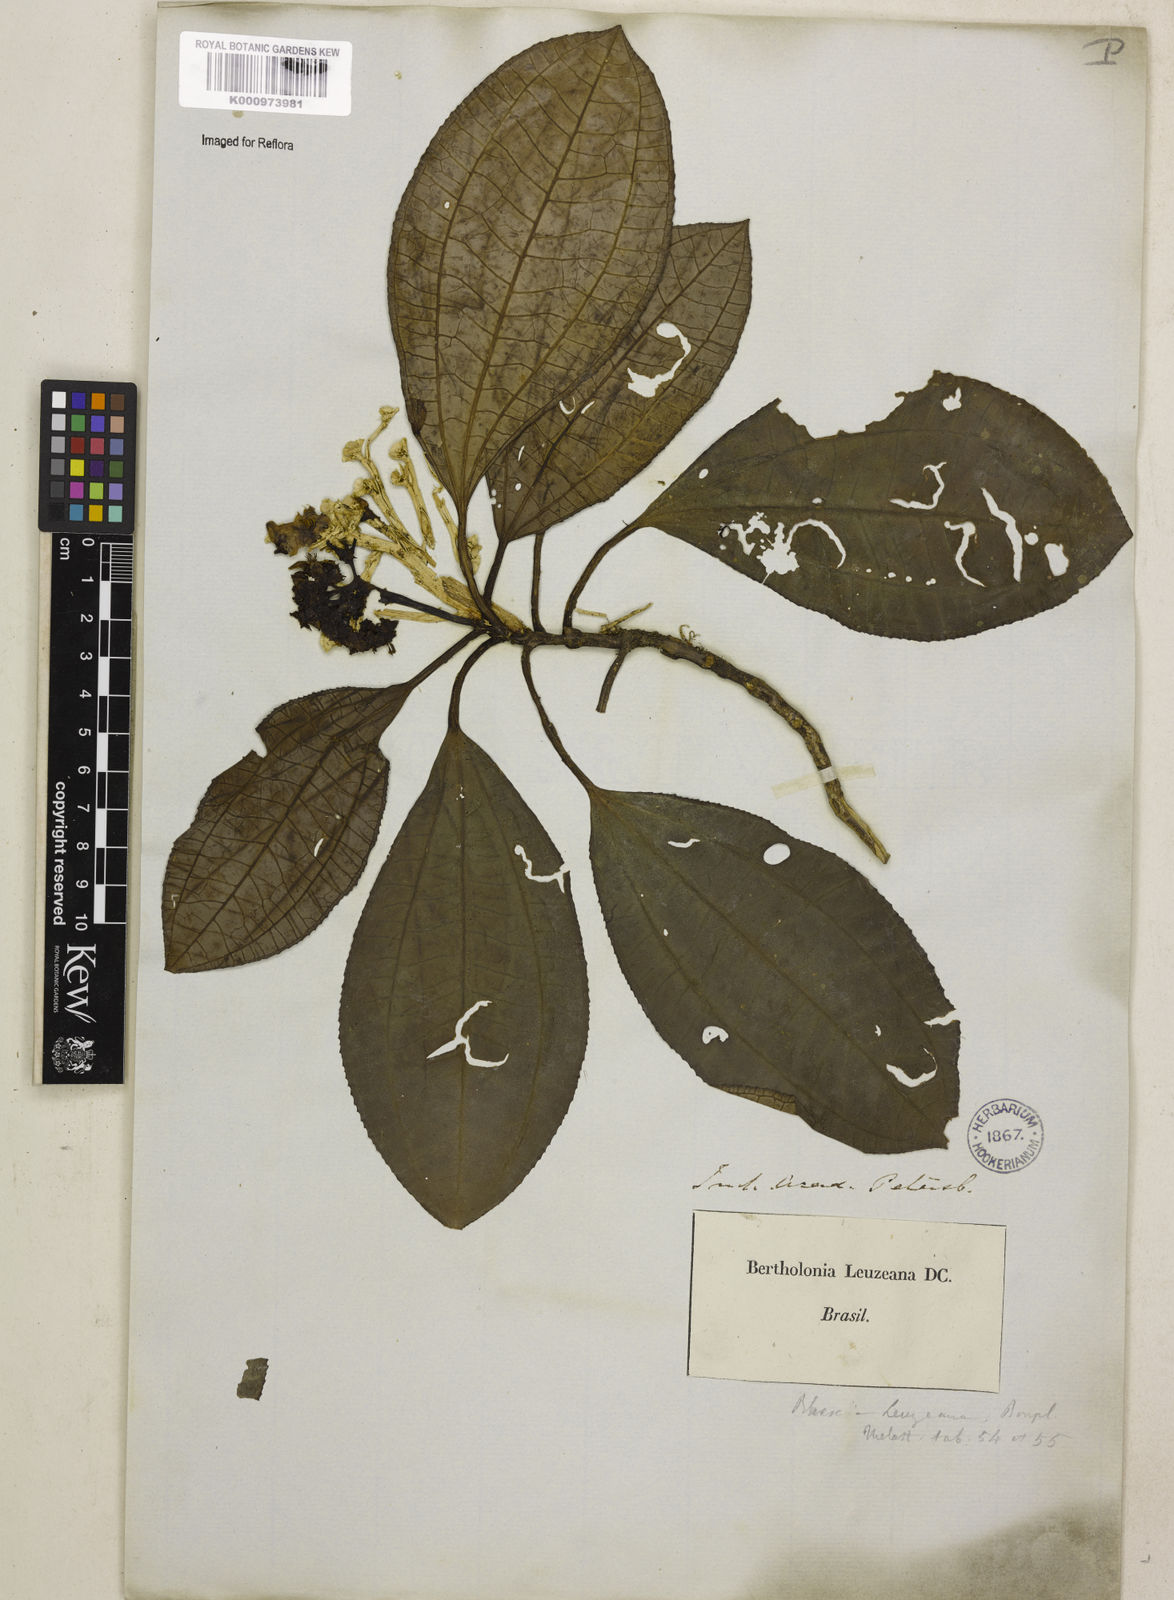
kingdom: Plantae
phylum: Tracheophyta
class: Magnoliopsida
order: Myrtales
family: Melastomataceae
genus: Bertolonia
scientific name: Bertolonia leuzeana
